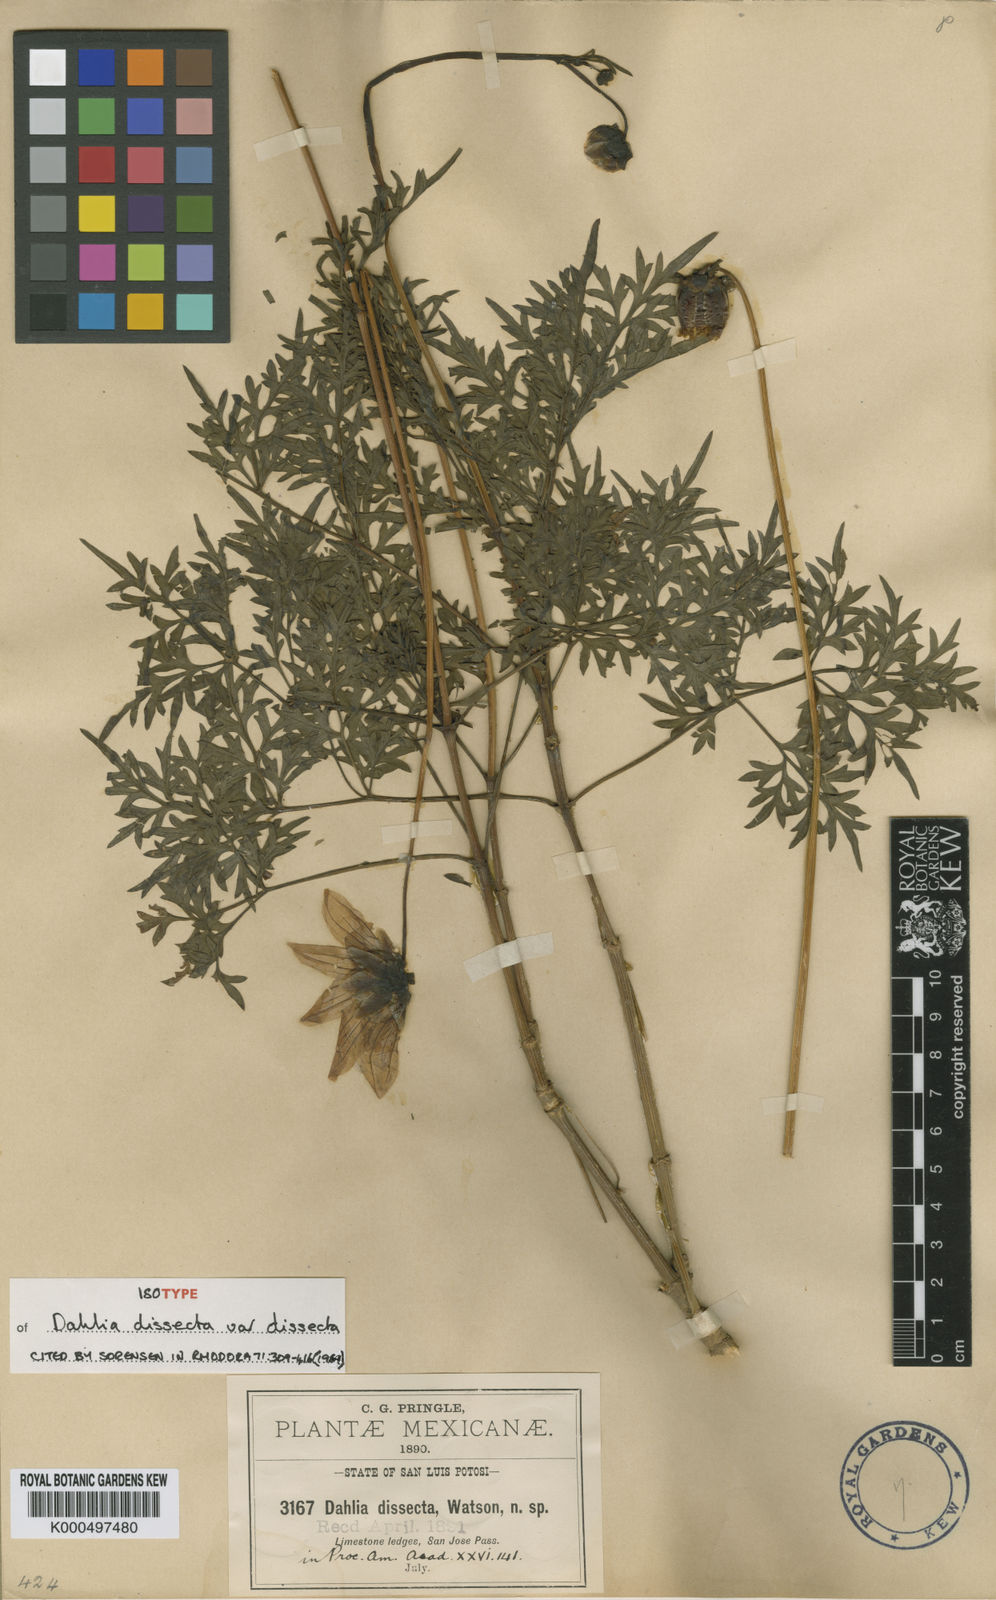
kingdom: Plantae
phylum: Tracheophyta
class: Magnoliopsida
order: Asterales
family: Asteraceae
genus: Dahlia
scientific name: Dahlia dissecta
